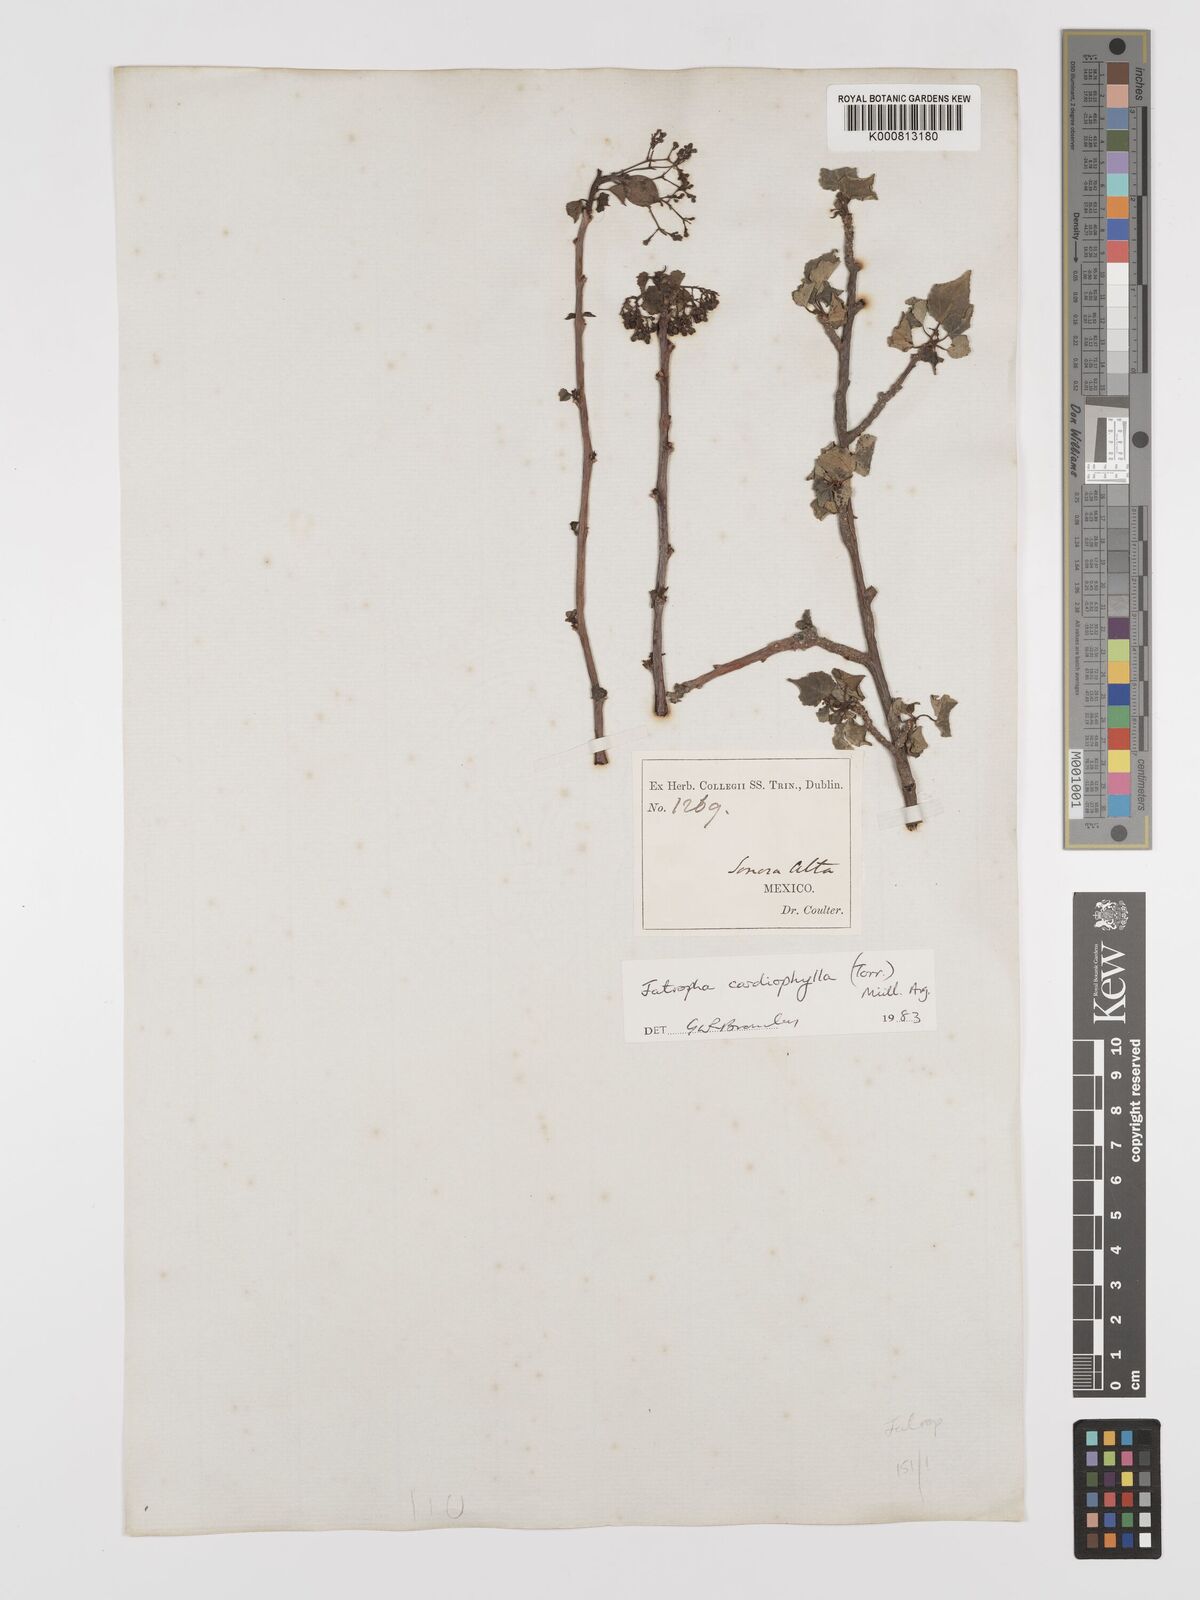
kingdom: Plantae
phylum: Tracheophyta
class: Magnoliopsida
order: Malpighiales
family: Euphorbiaceae
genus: Jatropha
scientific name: Jatropha
